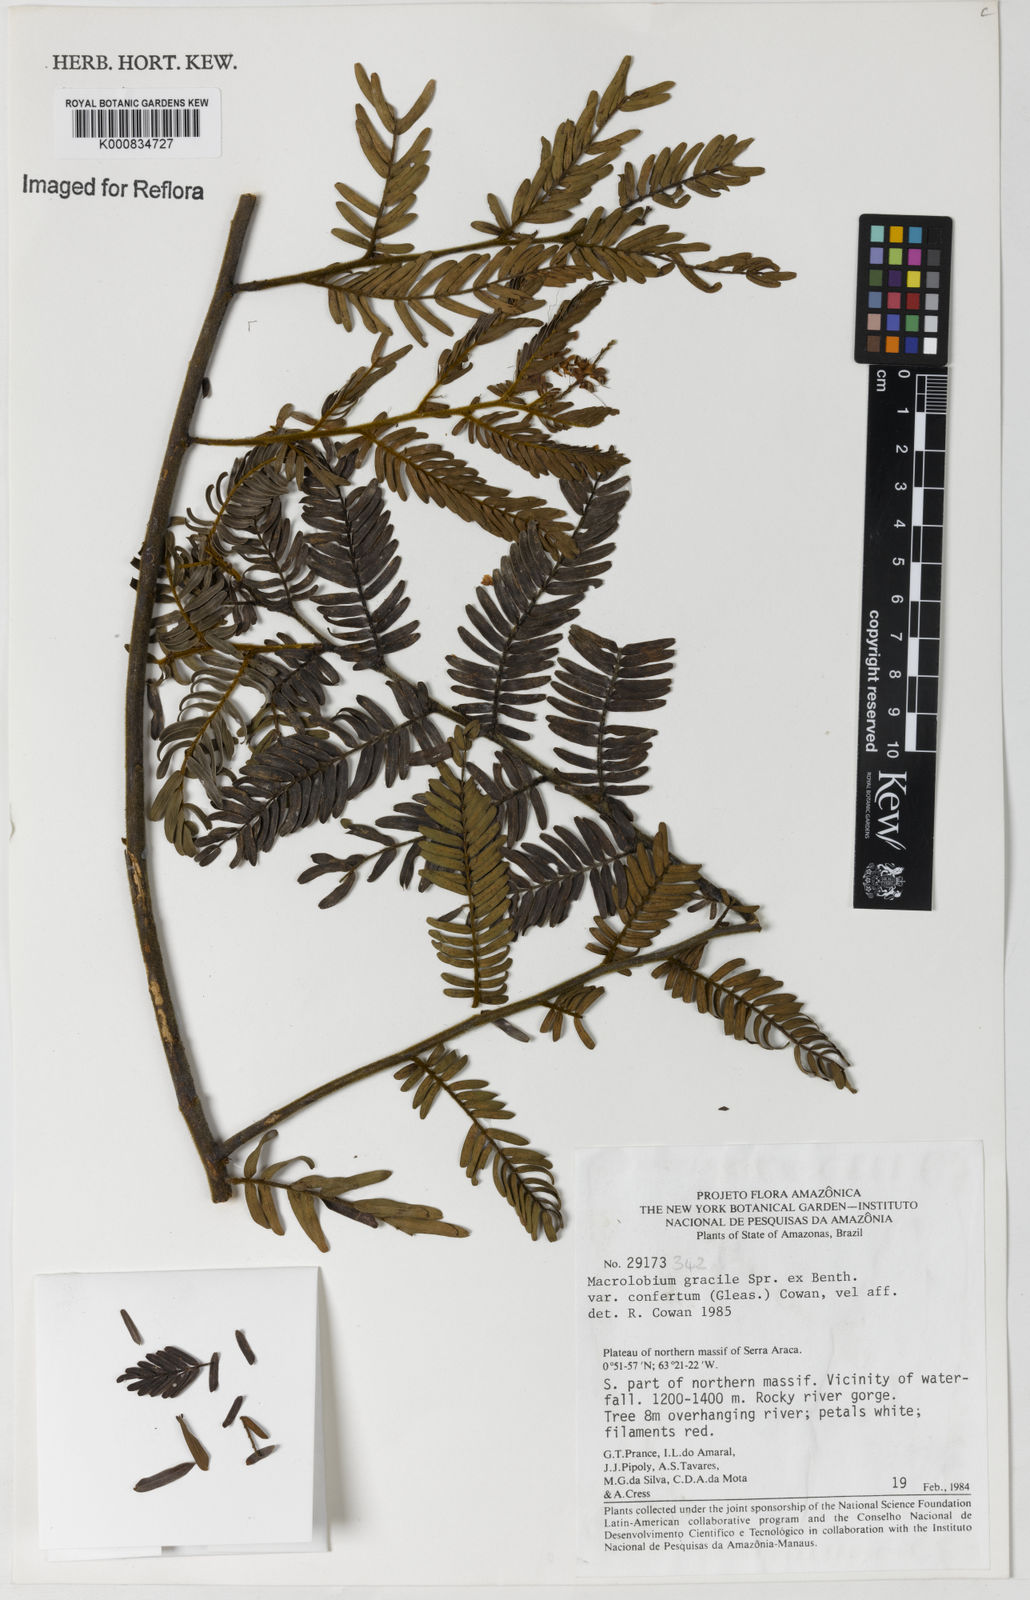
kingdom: Plantae
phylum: Tracheophyta
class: Magnoliopsida
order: Fabales
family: Fabaceae
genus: Macrolobium
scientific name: Macrolobium gracile
